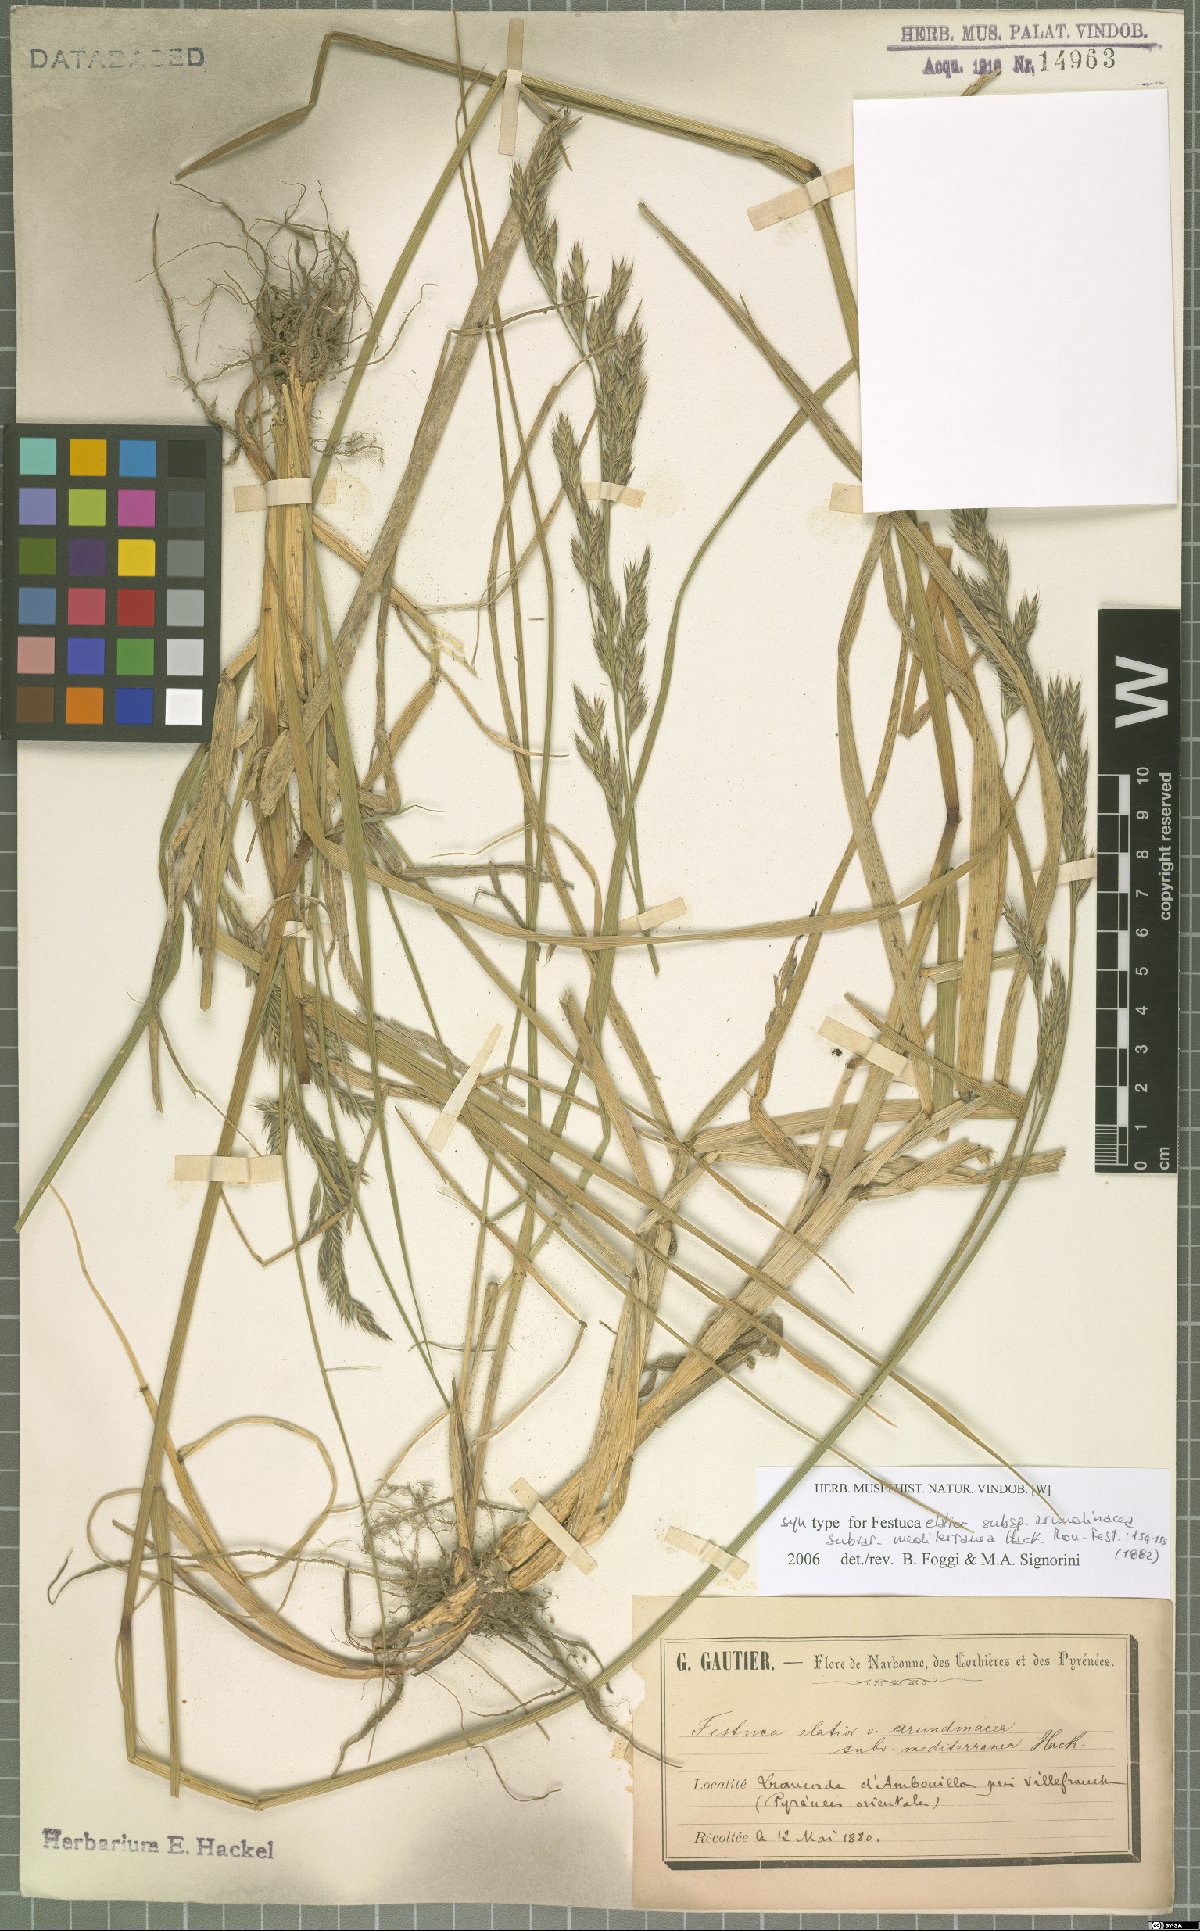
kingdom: Plantae
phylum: Tracheophyta
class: Liliopsida
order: Poales
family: Poaceae
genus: Lolium
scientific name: Lolium mediterraneum
